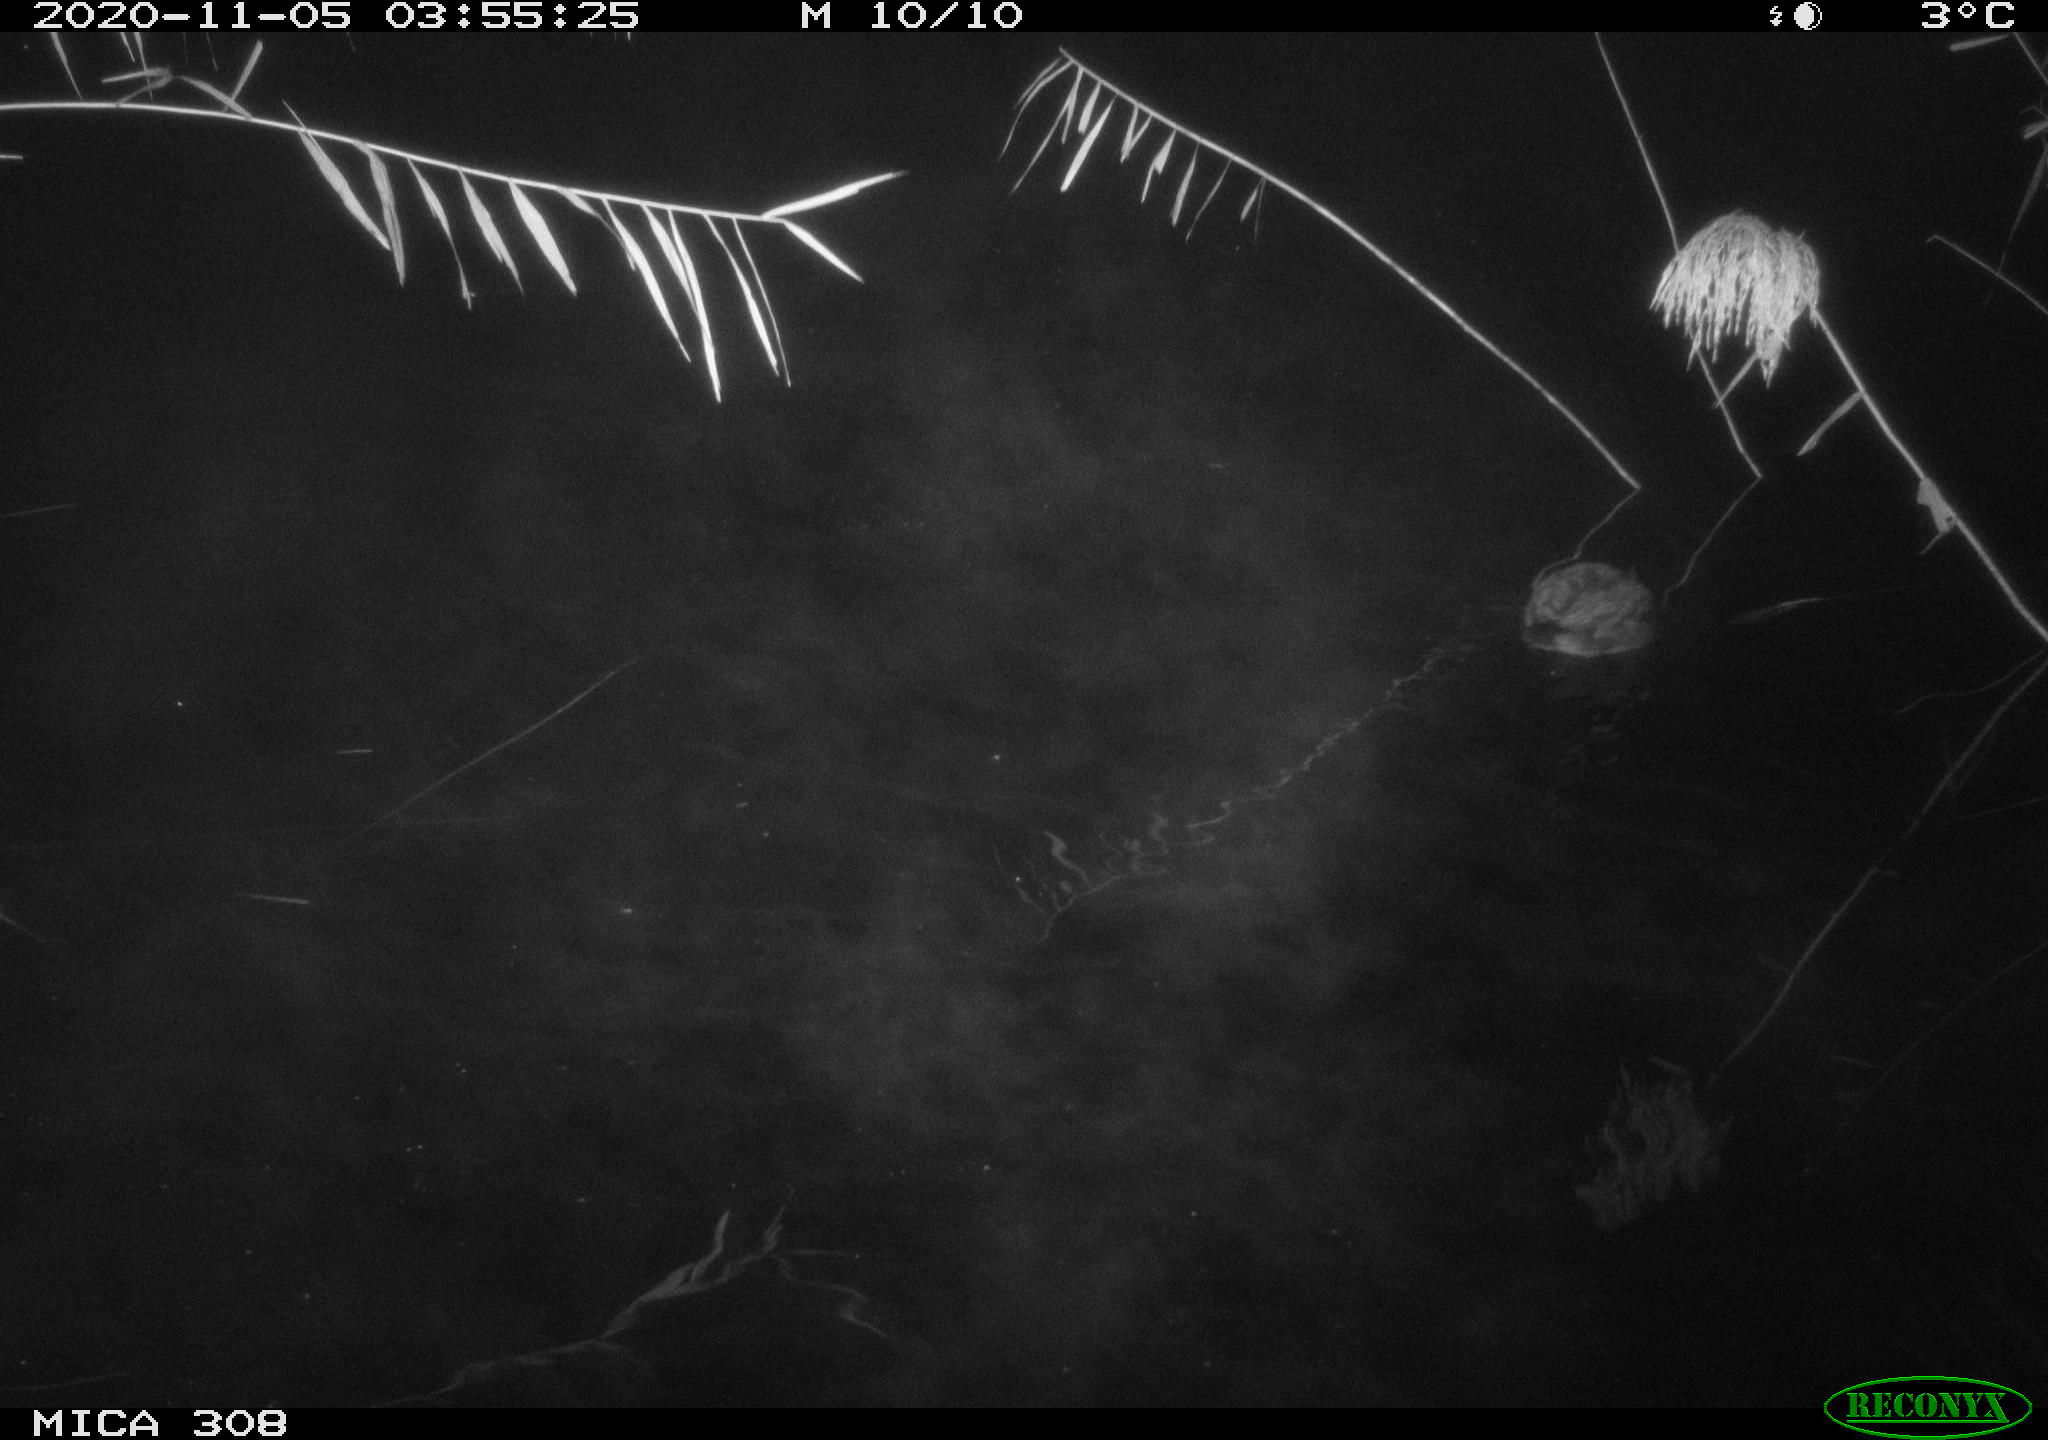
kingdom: Animalia
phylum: Chordata
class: Aves
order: Gruiformes
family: Rallidae
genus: Fulica
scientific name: Fulica atra
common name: Eurasian coot
